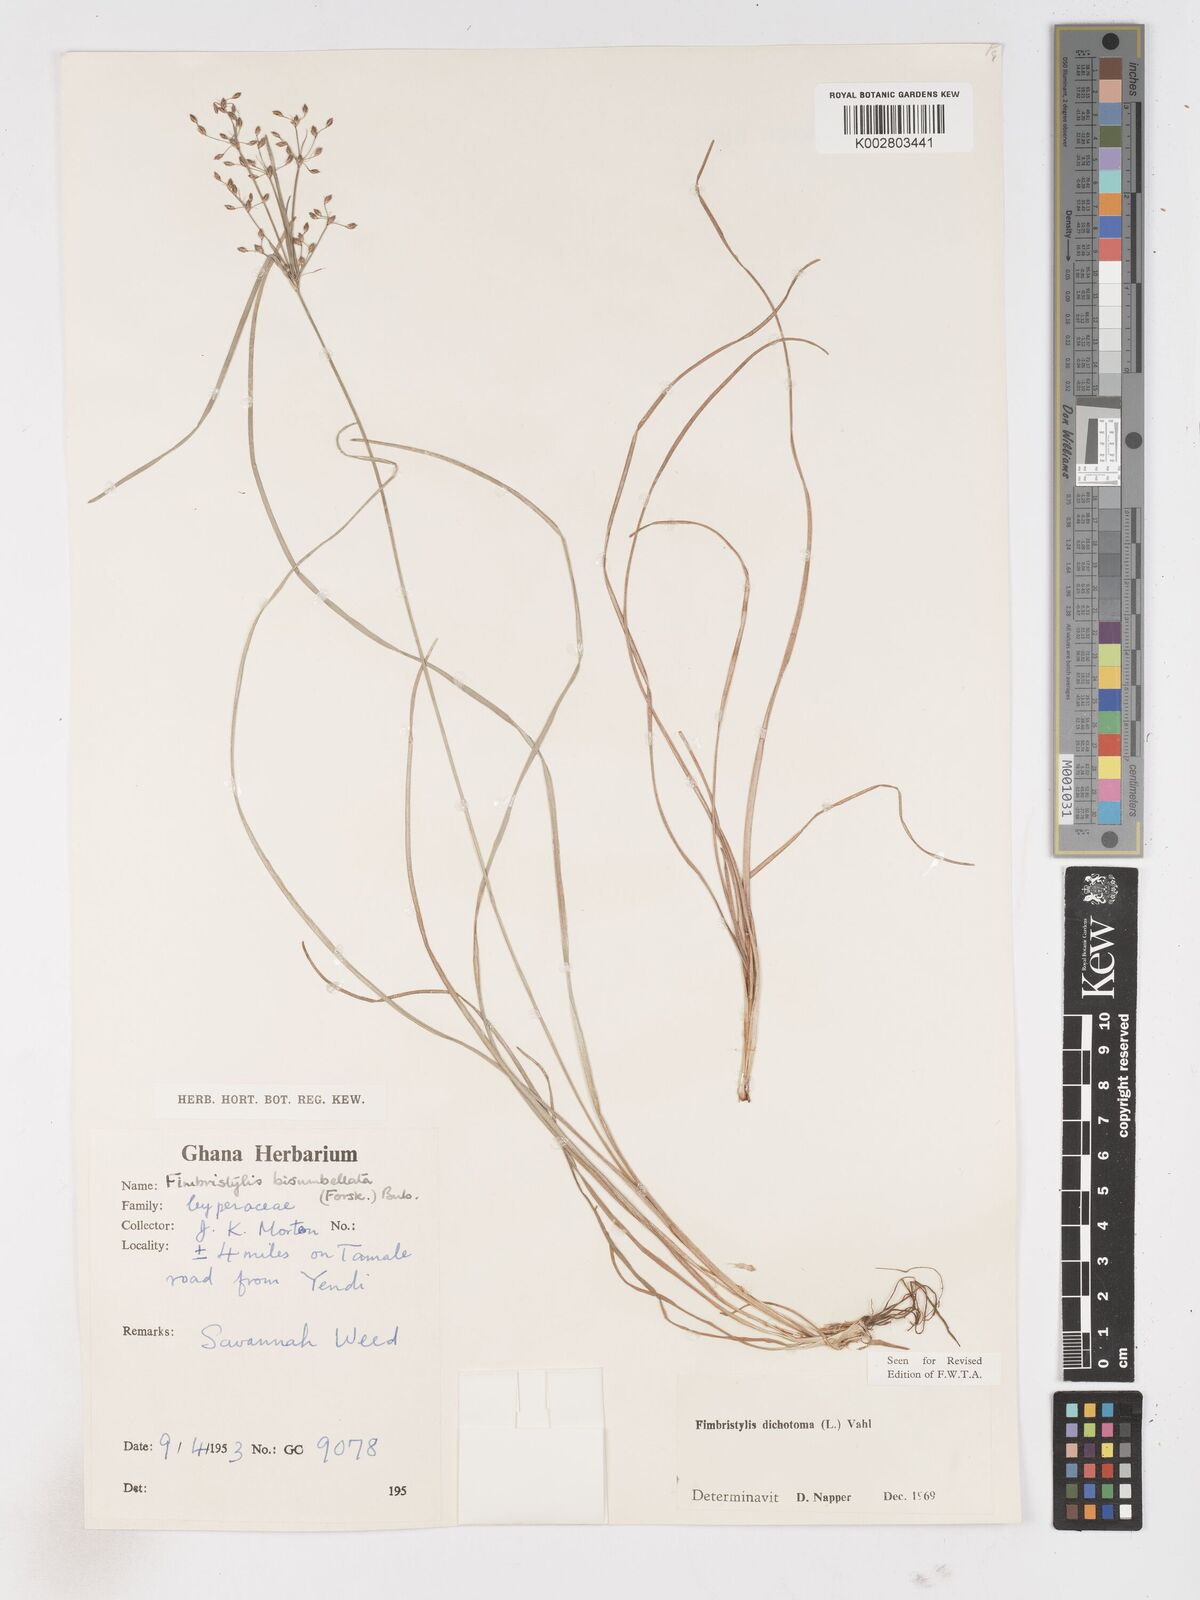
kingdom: Plantae
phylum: Tracheophyta
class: Liliopsida
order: Poales
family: Cyperaceae
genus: Fimbristylis
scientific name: Fimbristylis dichotoma
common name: Forked fimbry
